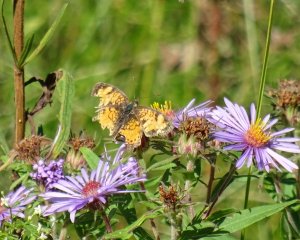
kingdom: Animalia
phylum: Arthropoda
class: Insecta
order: Lepidoptera
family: Nymphalidae
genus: Phyciodes
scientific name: Phyciodes tharos
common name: Northern Crescent
